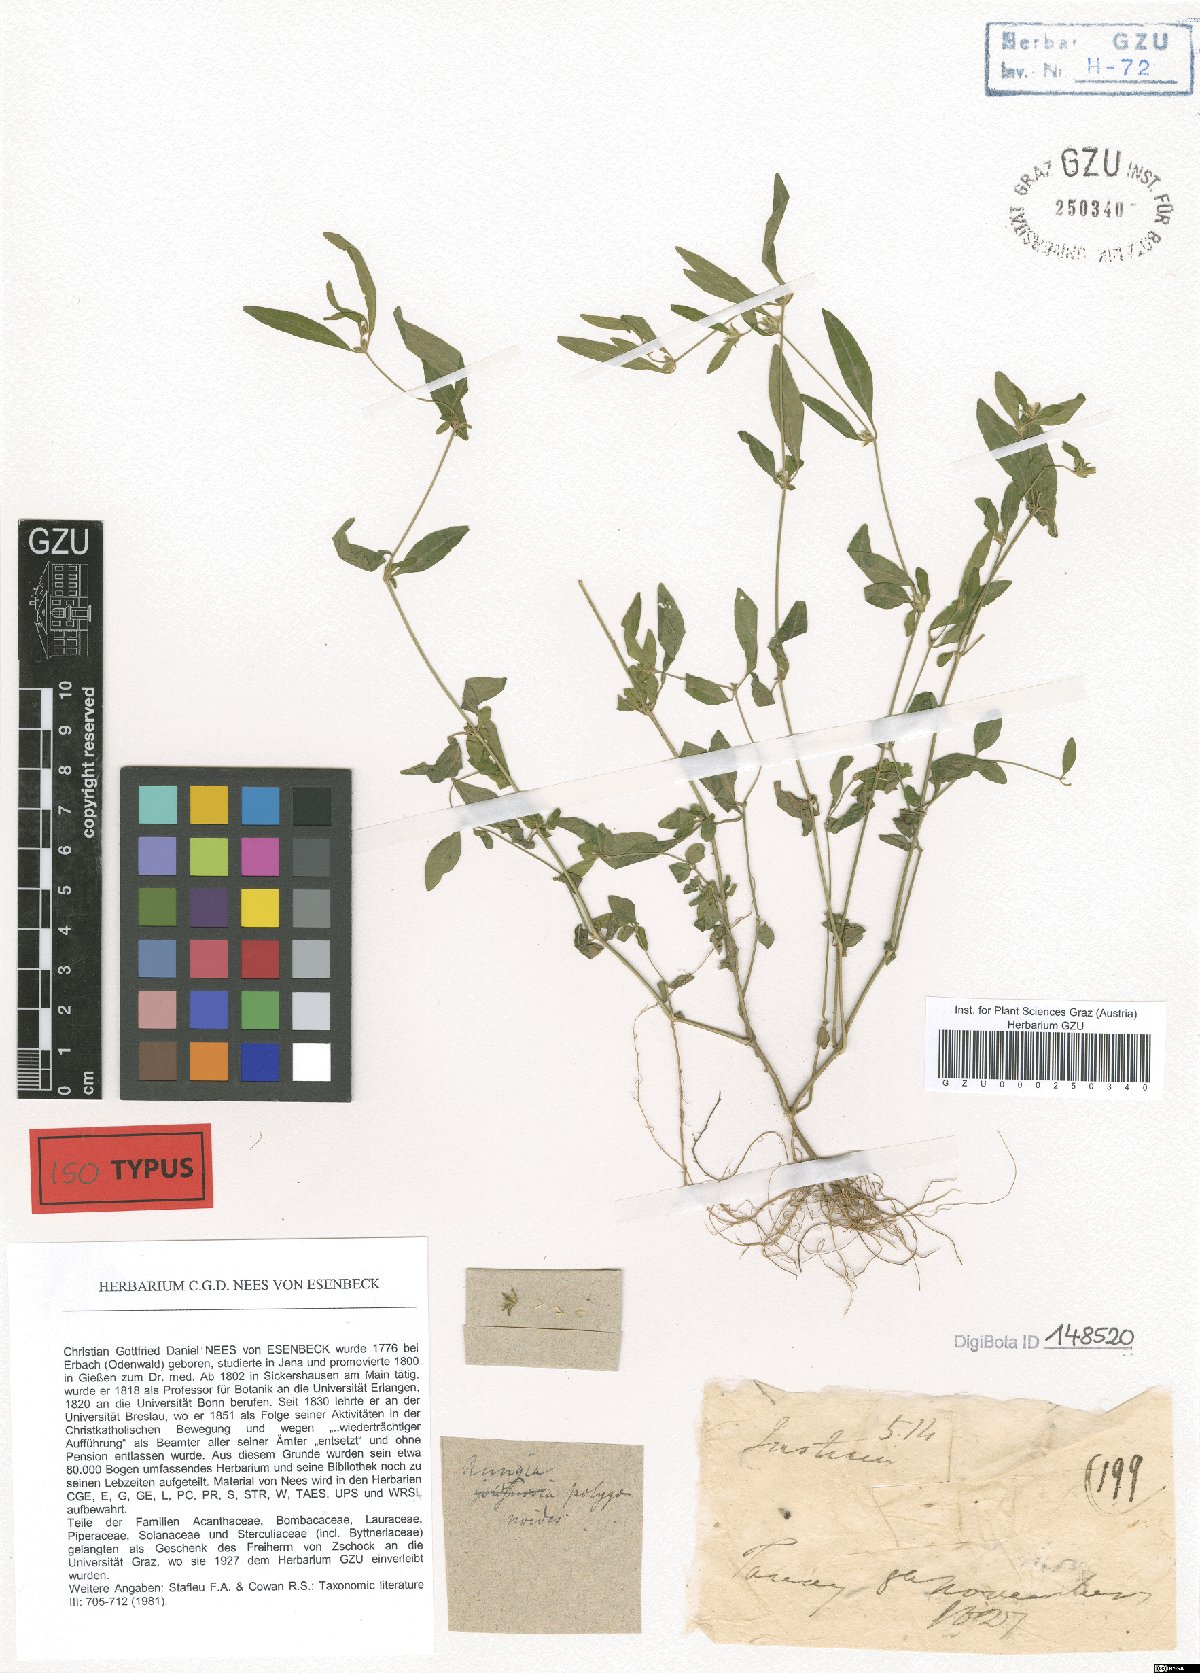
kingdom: Plantae
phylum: Tracheophyta
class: Magnoliopsida
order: Lamiales
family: Acanthaceae
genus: Rungia
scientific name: Rungia parviflora
